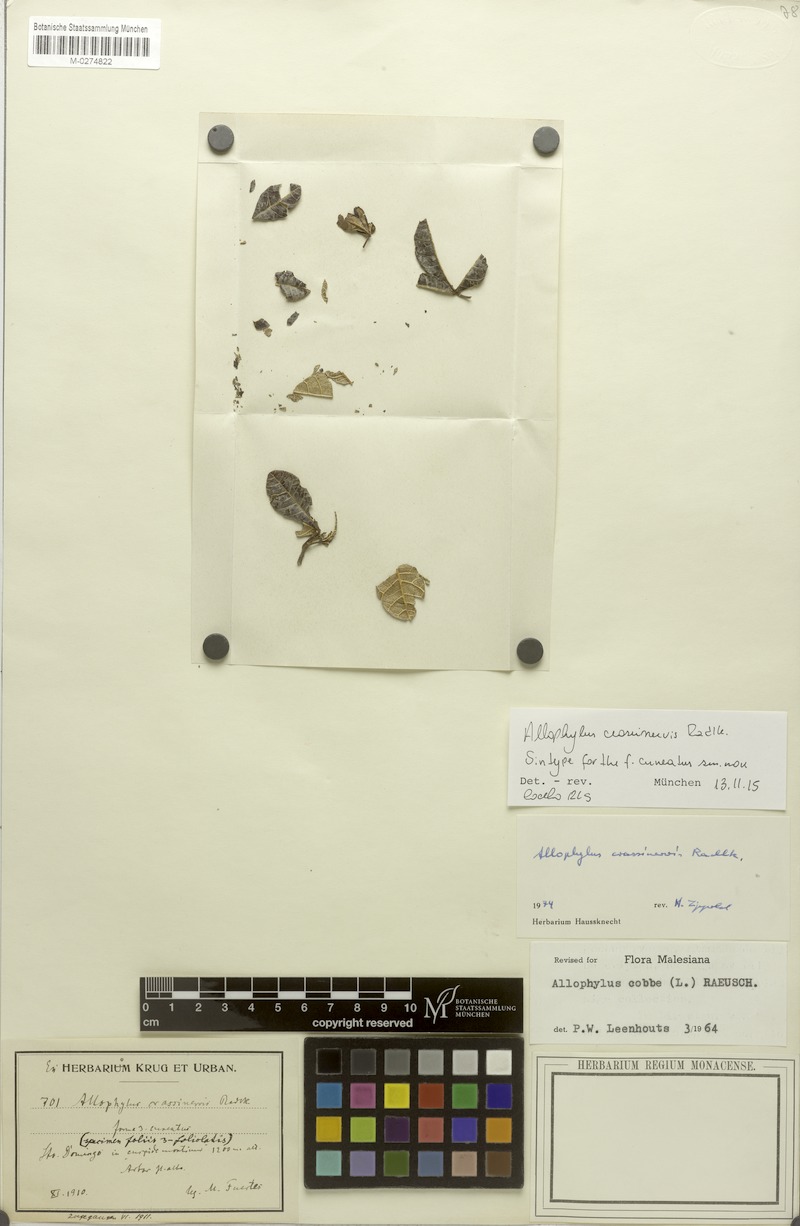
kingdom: Plantae
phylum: Tracheophyta
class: Magnoliopsida
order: Sapindales
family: Sapindaceae
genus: Allophylus
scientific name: Allophylus crassinervis
